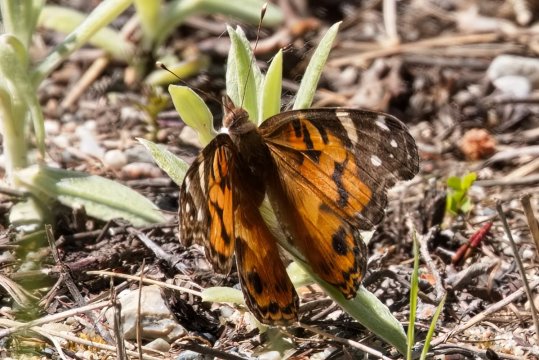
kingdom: Animalia
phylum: Arthropoda
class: Insecta
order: Lepidoptera
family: Nymphalidae
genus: Vanessa
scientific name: Vanessa virginiensis
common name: American Lady
